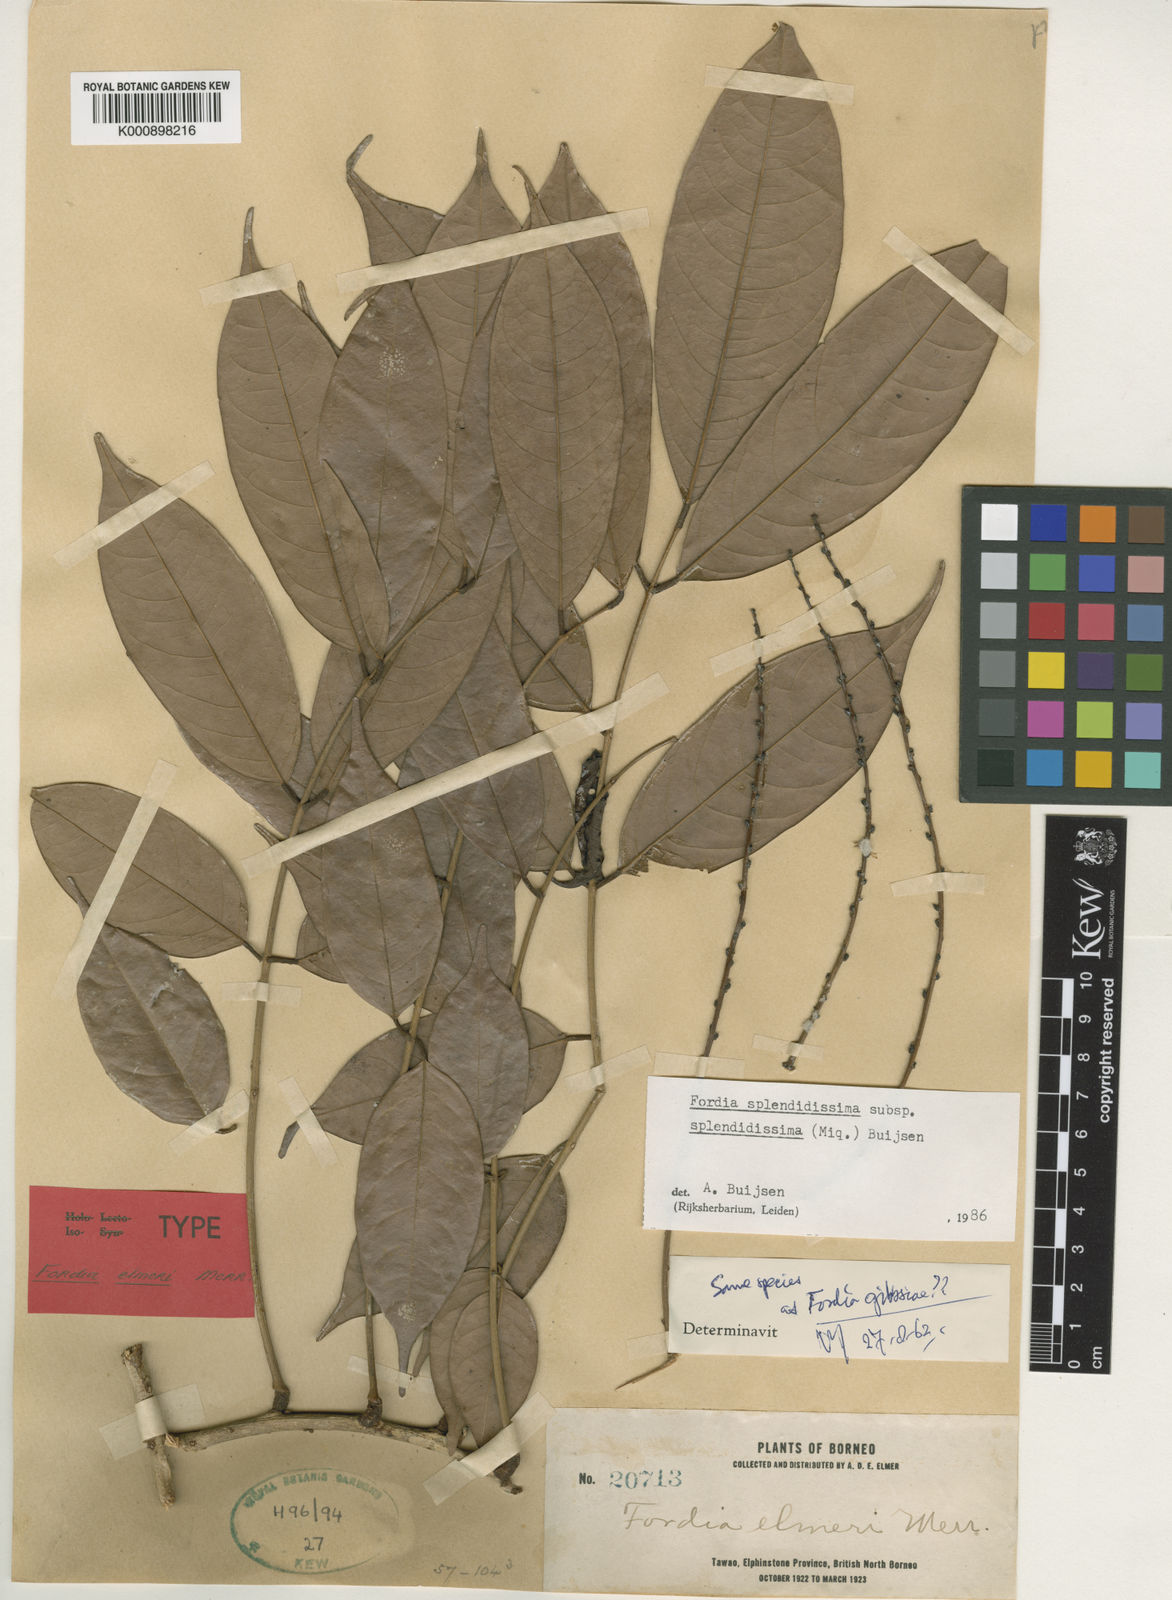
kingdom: Plantae
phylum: Tracheophyta
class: Magnoliopsida
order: Fabales
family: Fabaceae
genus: Fordia
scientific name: Fordia splendidissima
